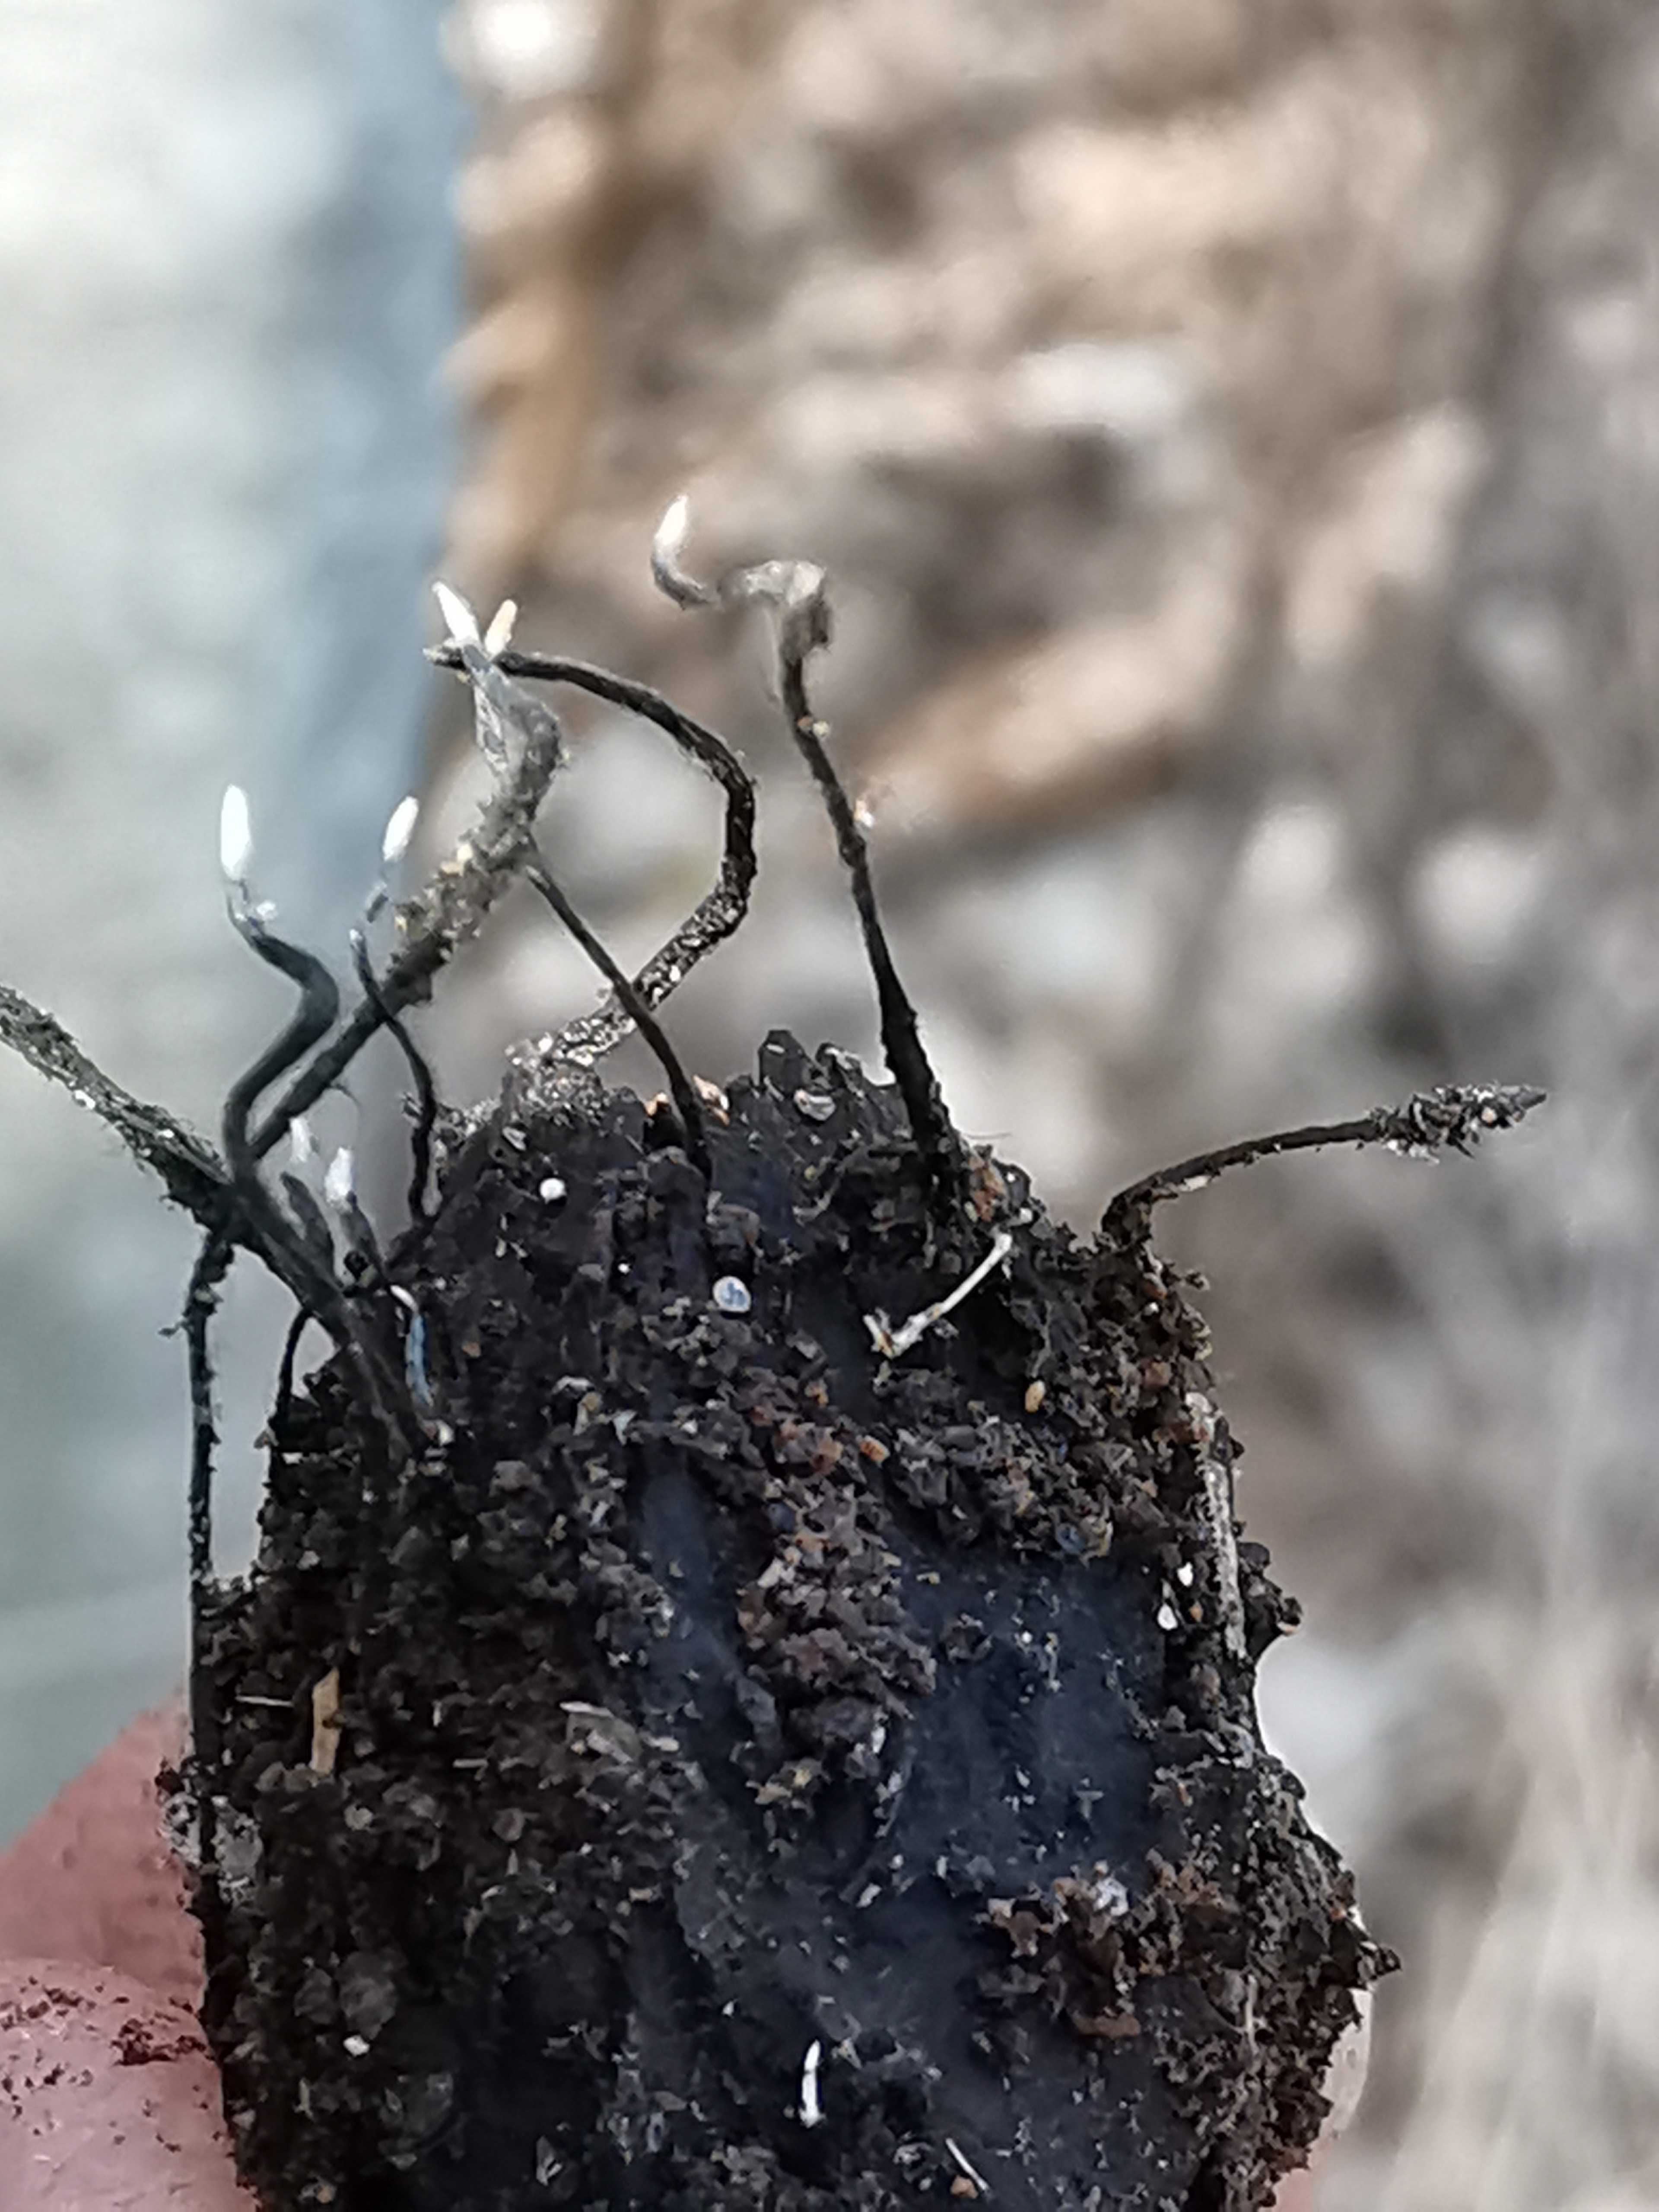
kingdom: Fungi
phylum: Ascomycota
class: Sordariomycetes
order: Xylariales
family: Xylariaceae
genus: Xylaria
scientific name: Xylaria carpophila
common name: bogskål-stødsvamp
